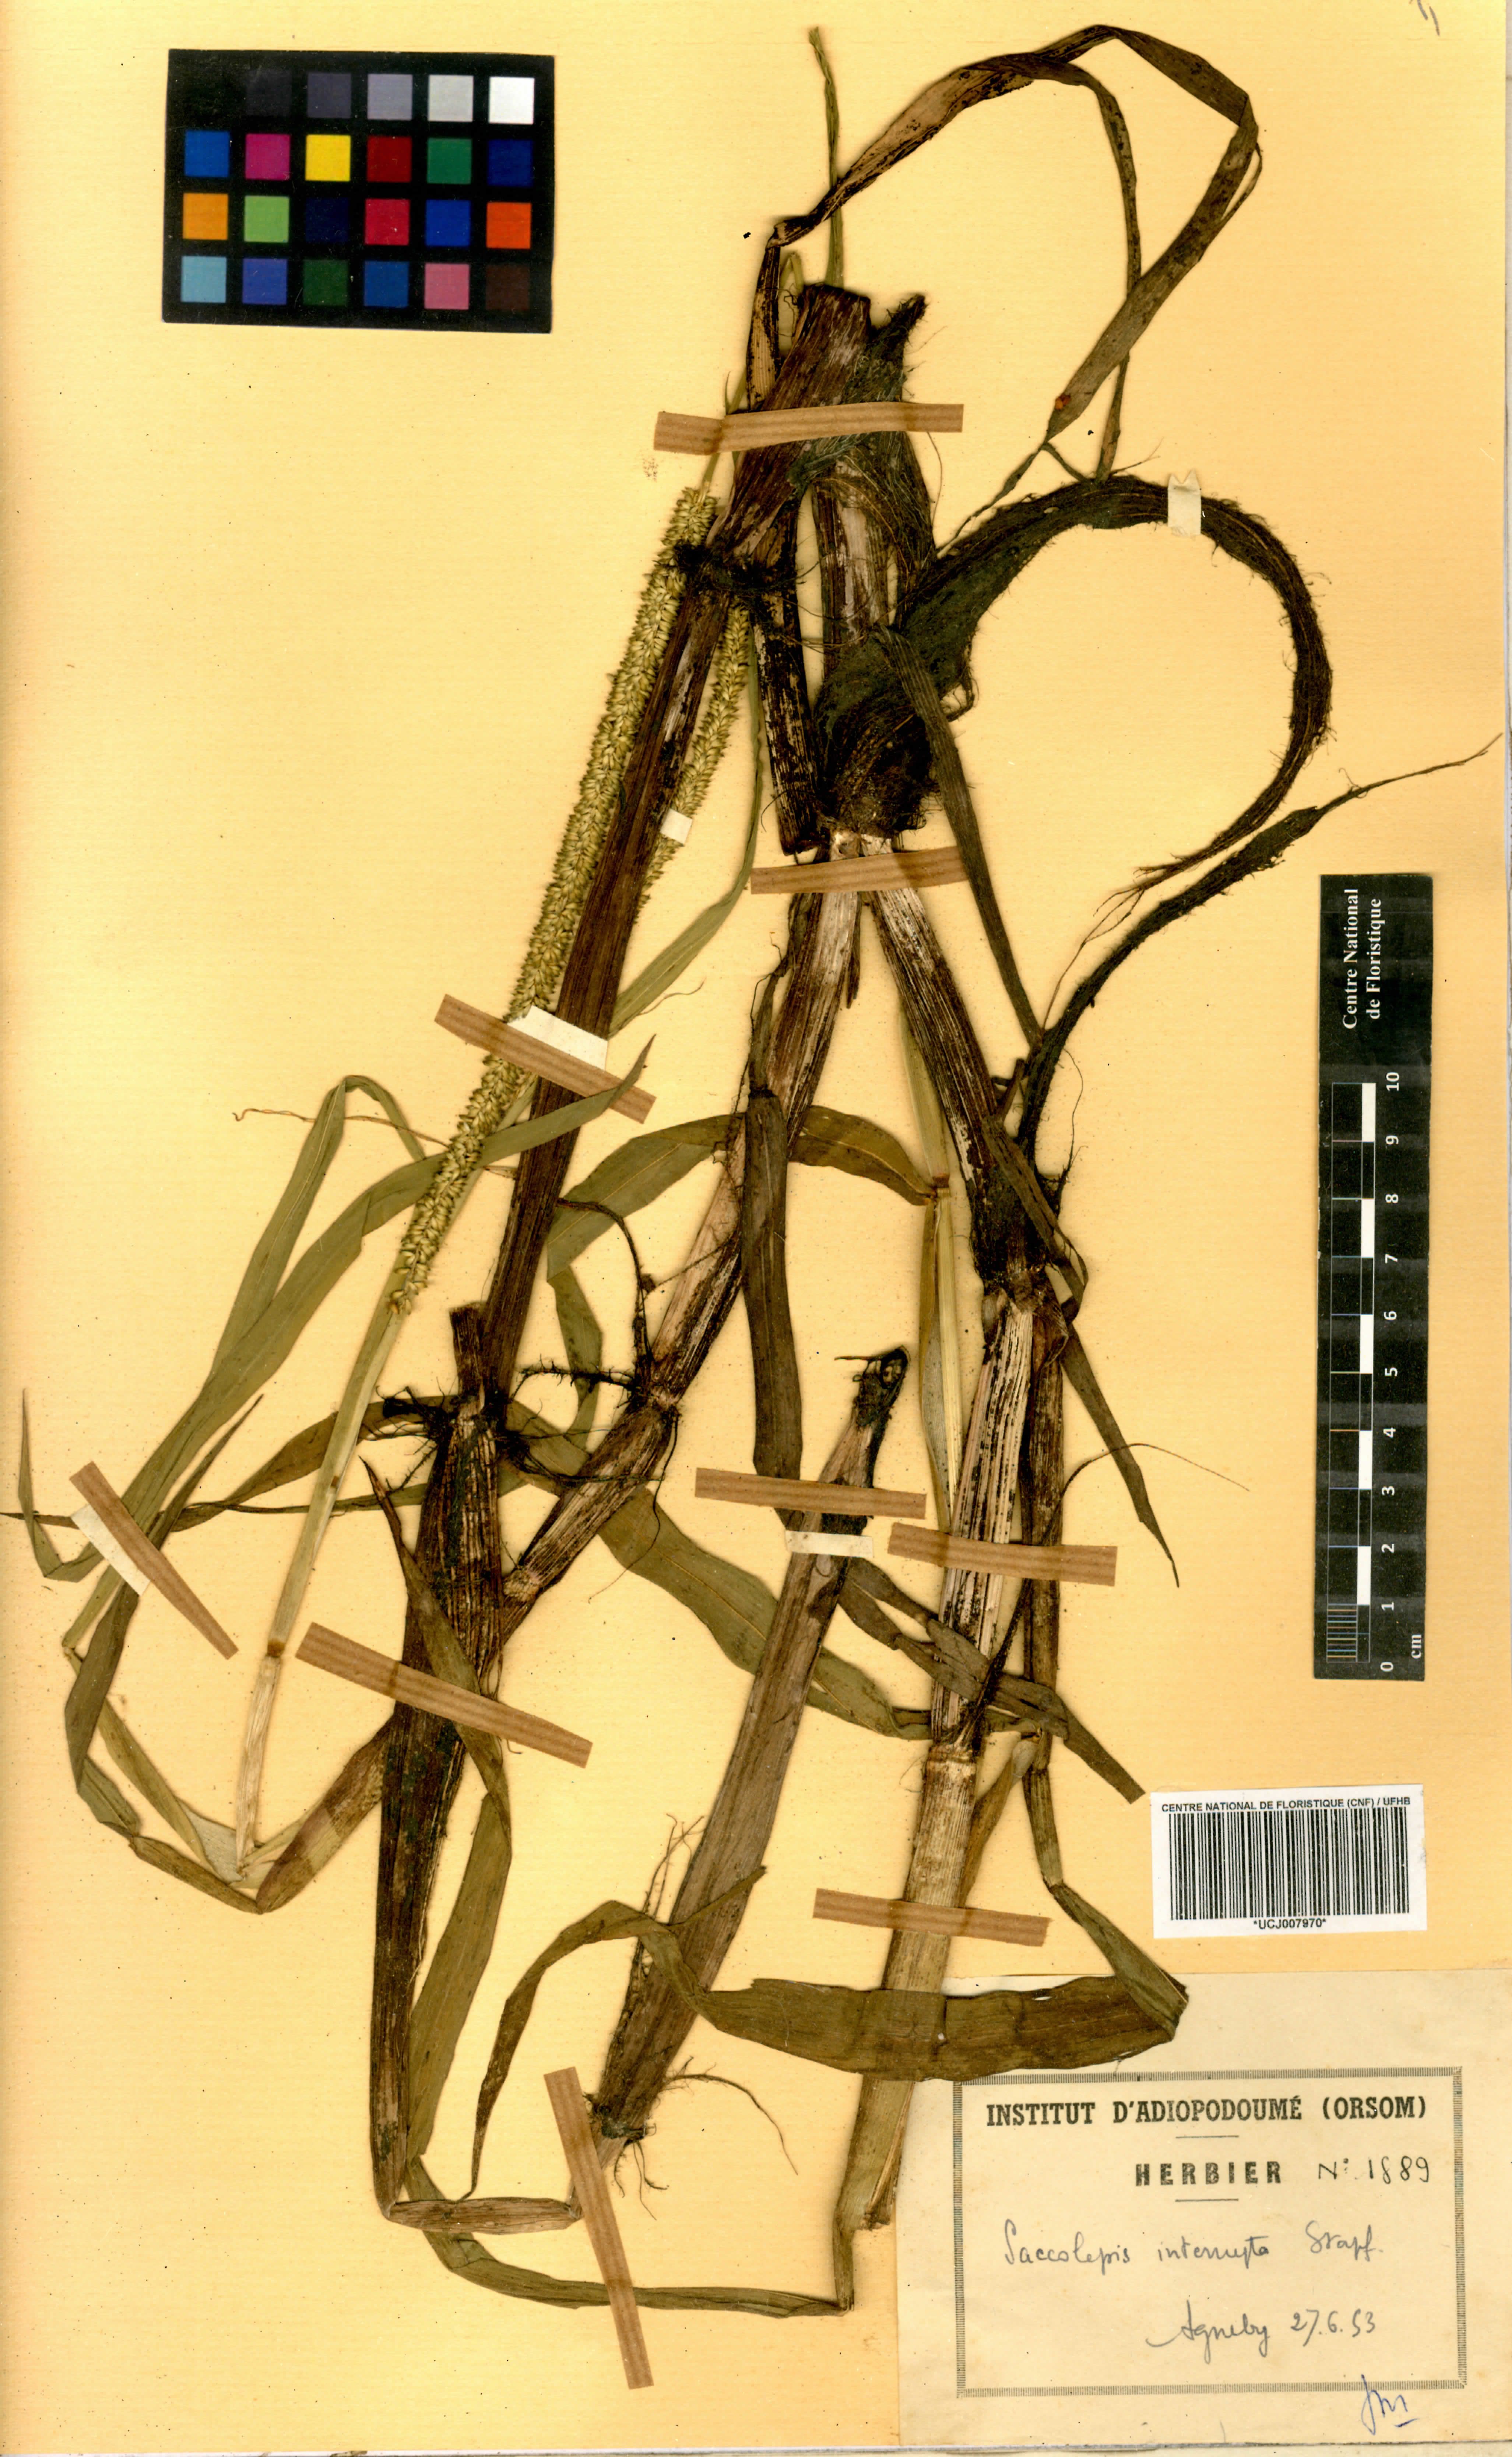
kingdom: Plantae
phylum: Tracheophyta
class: Liliopsida
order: Poales
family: Poaceae
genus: Sacciolepis
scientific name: Sacciolepis interrupta
